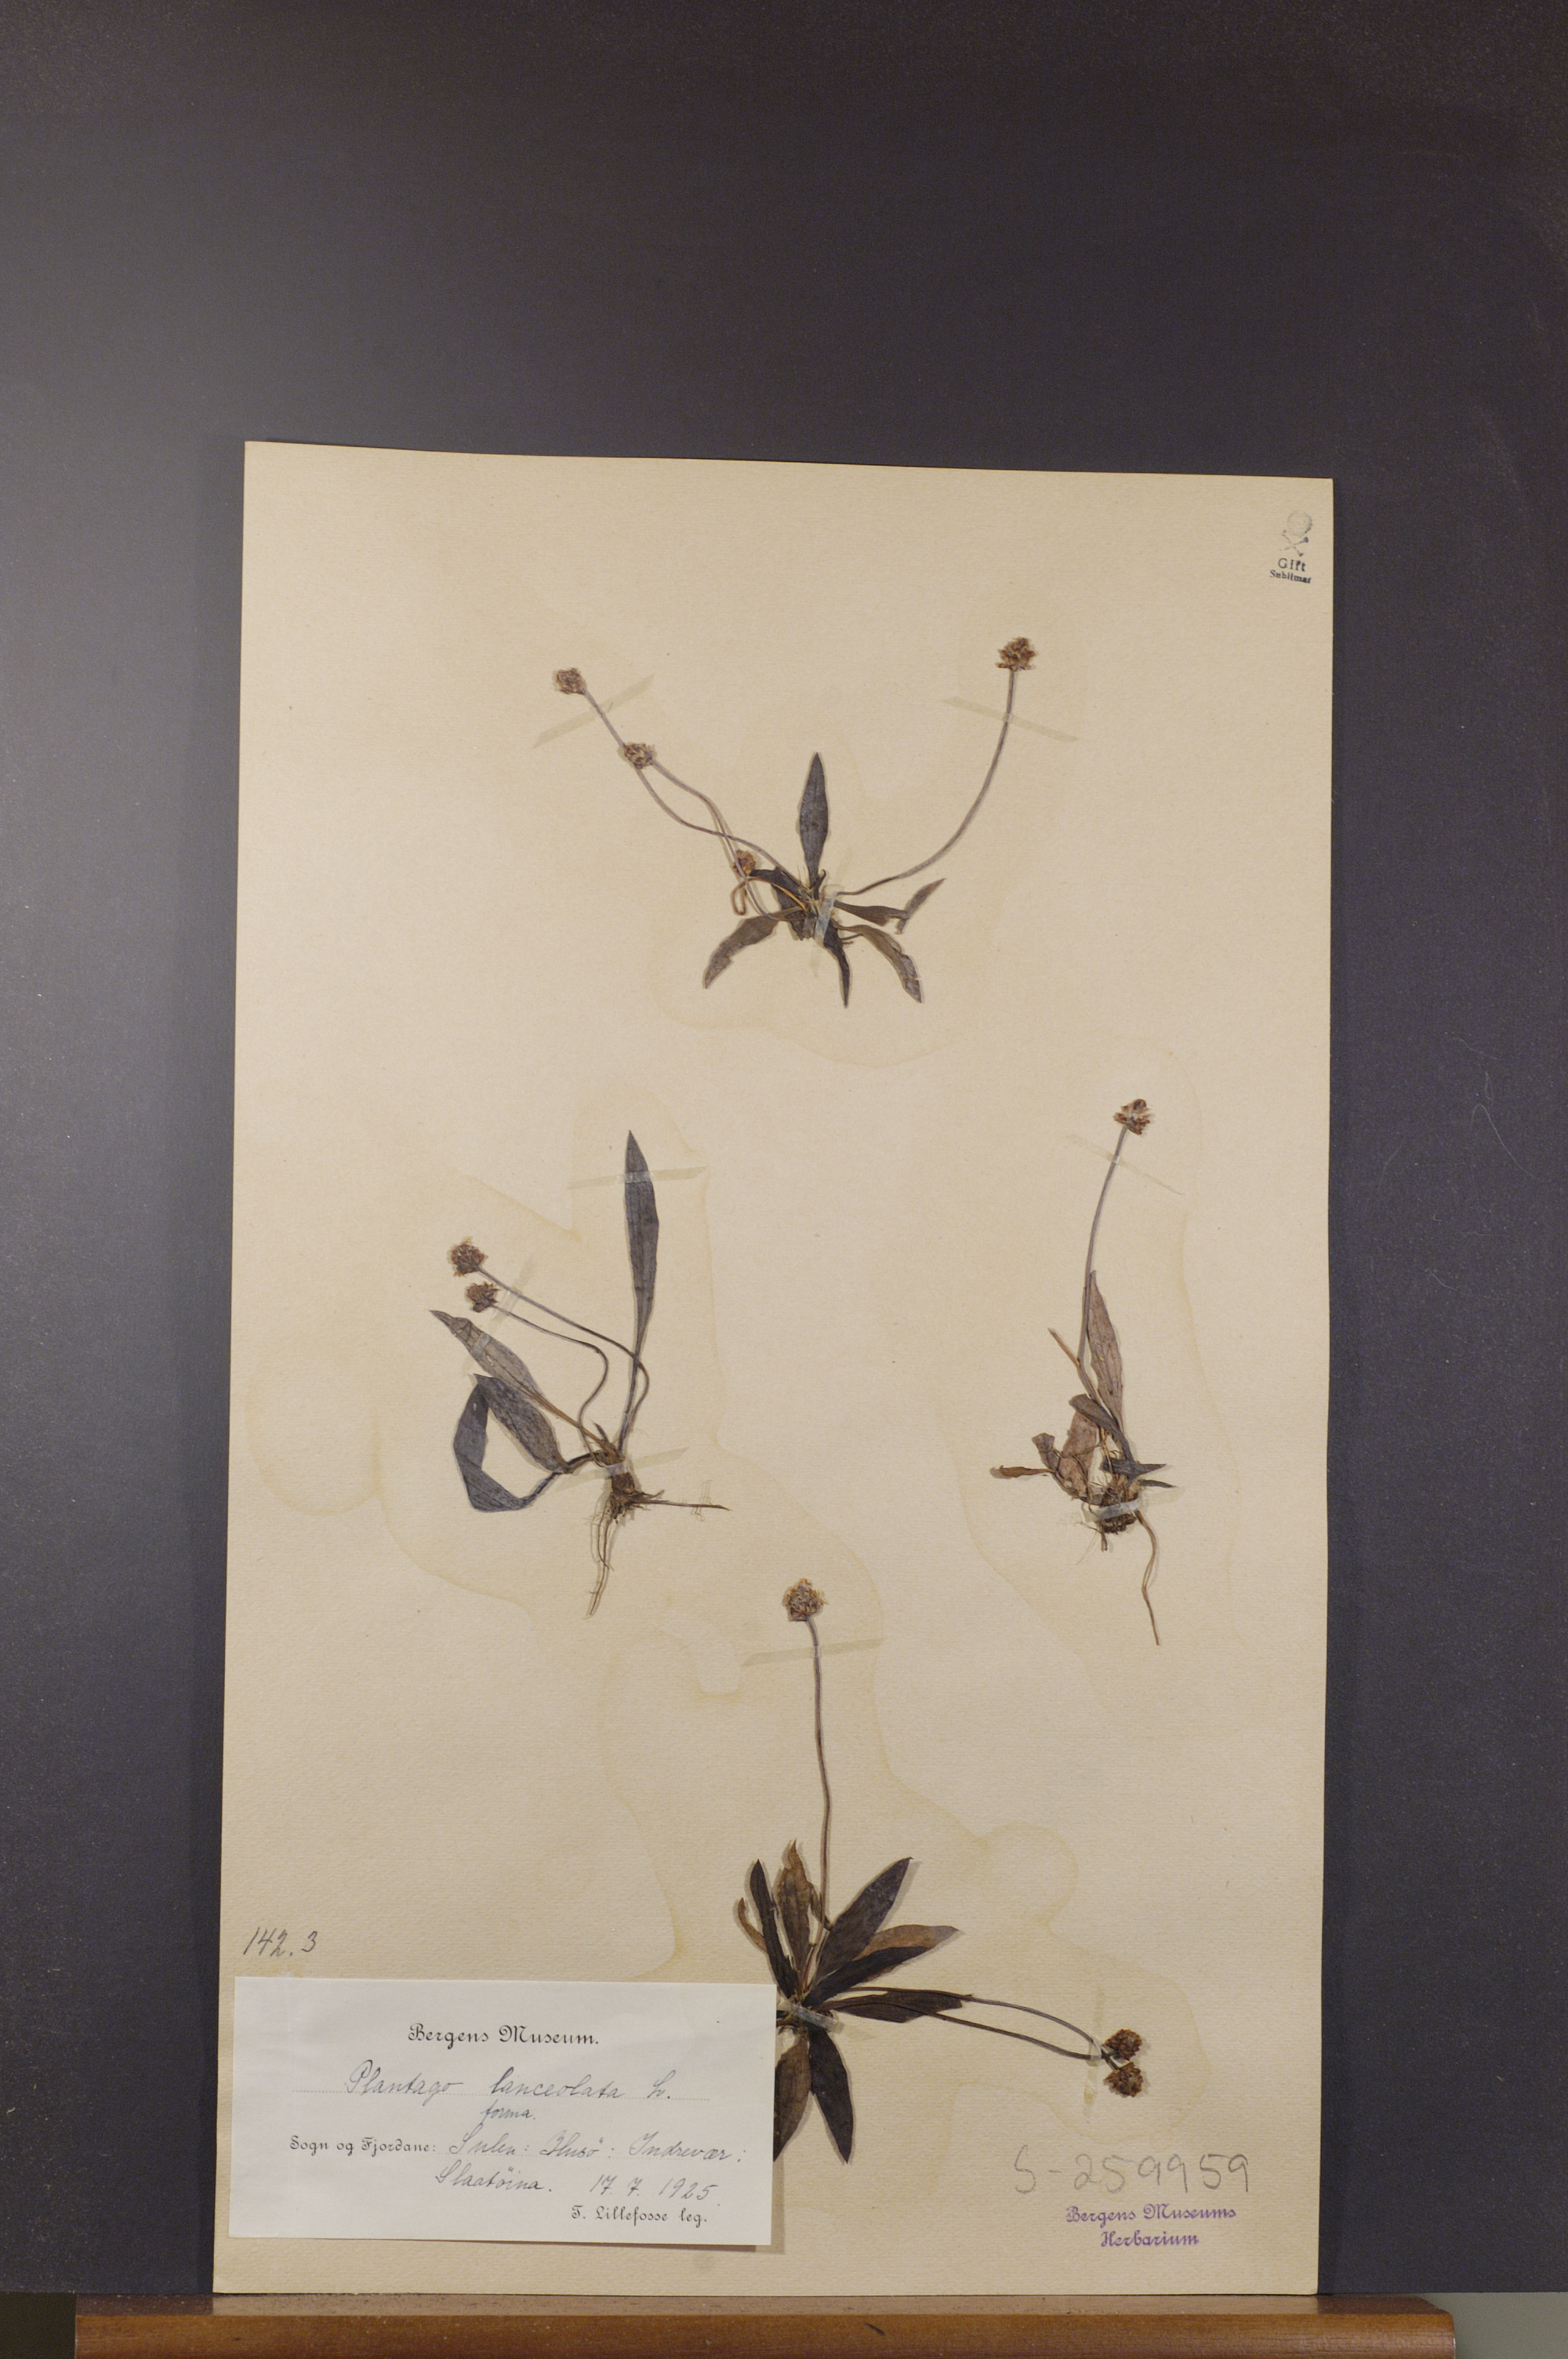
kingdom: Plantae
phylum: Tracheophyta
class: Magnoliopsida
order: Lamiales
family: Plantaginaceae
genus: Plantago
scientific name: Plantago lanceolata
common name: Ribwort plantain
